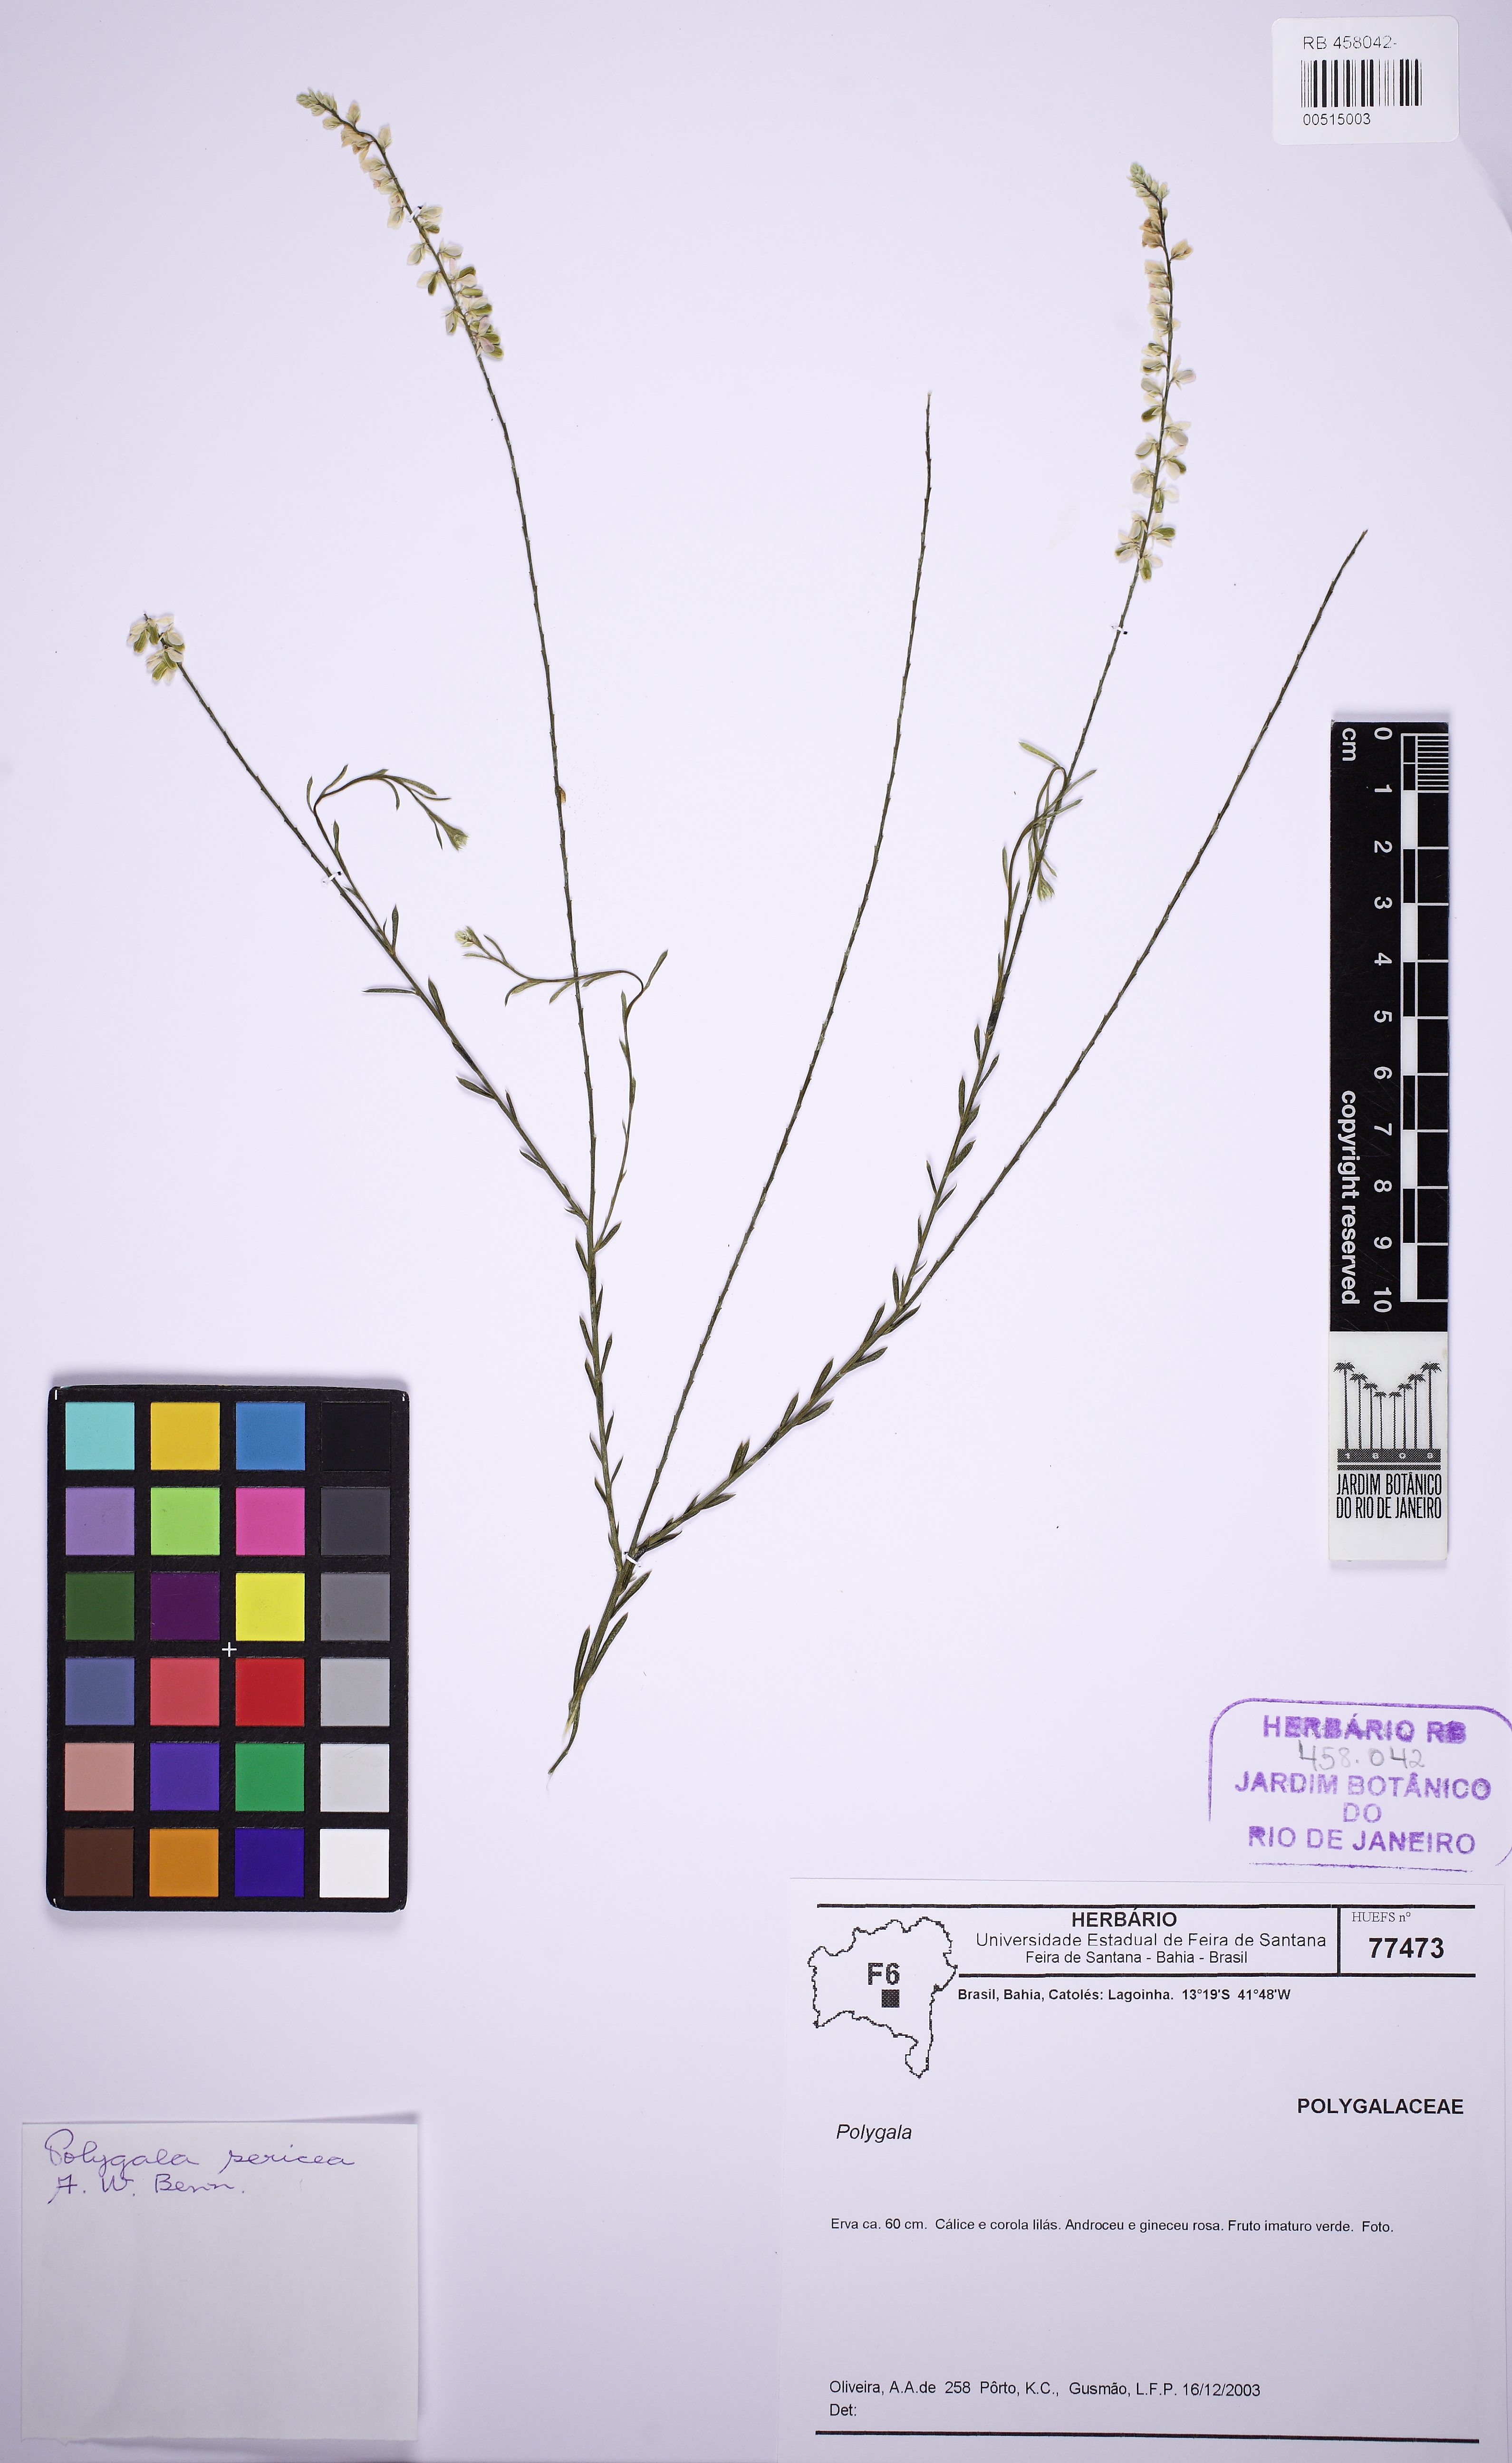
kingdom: Plantae
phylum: Tracheophyta
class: Magnoliopsida
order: Fabales
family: Polygalaceae
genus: Polygala
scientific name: Polygala sericea
